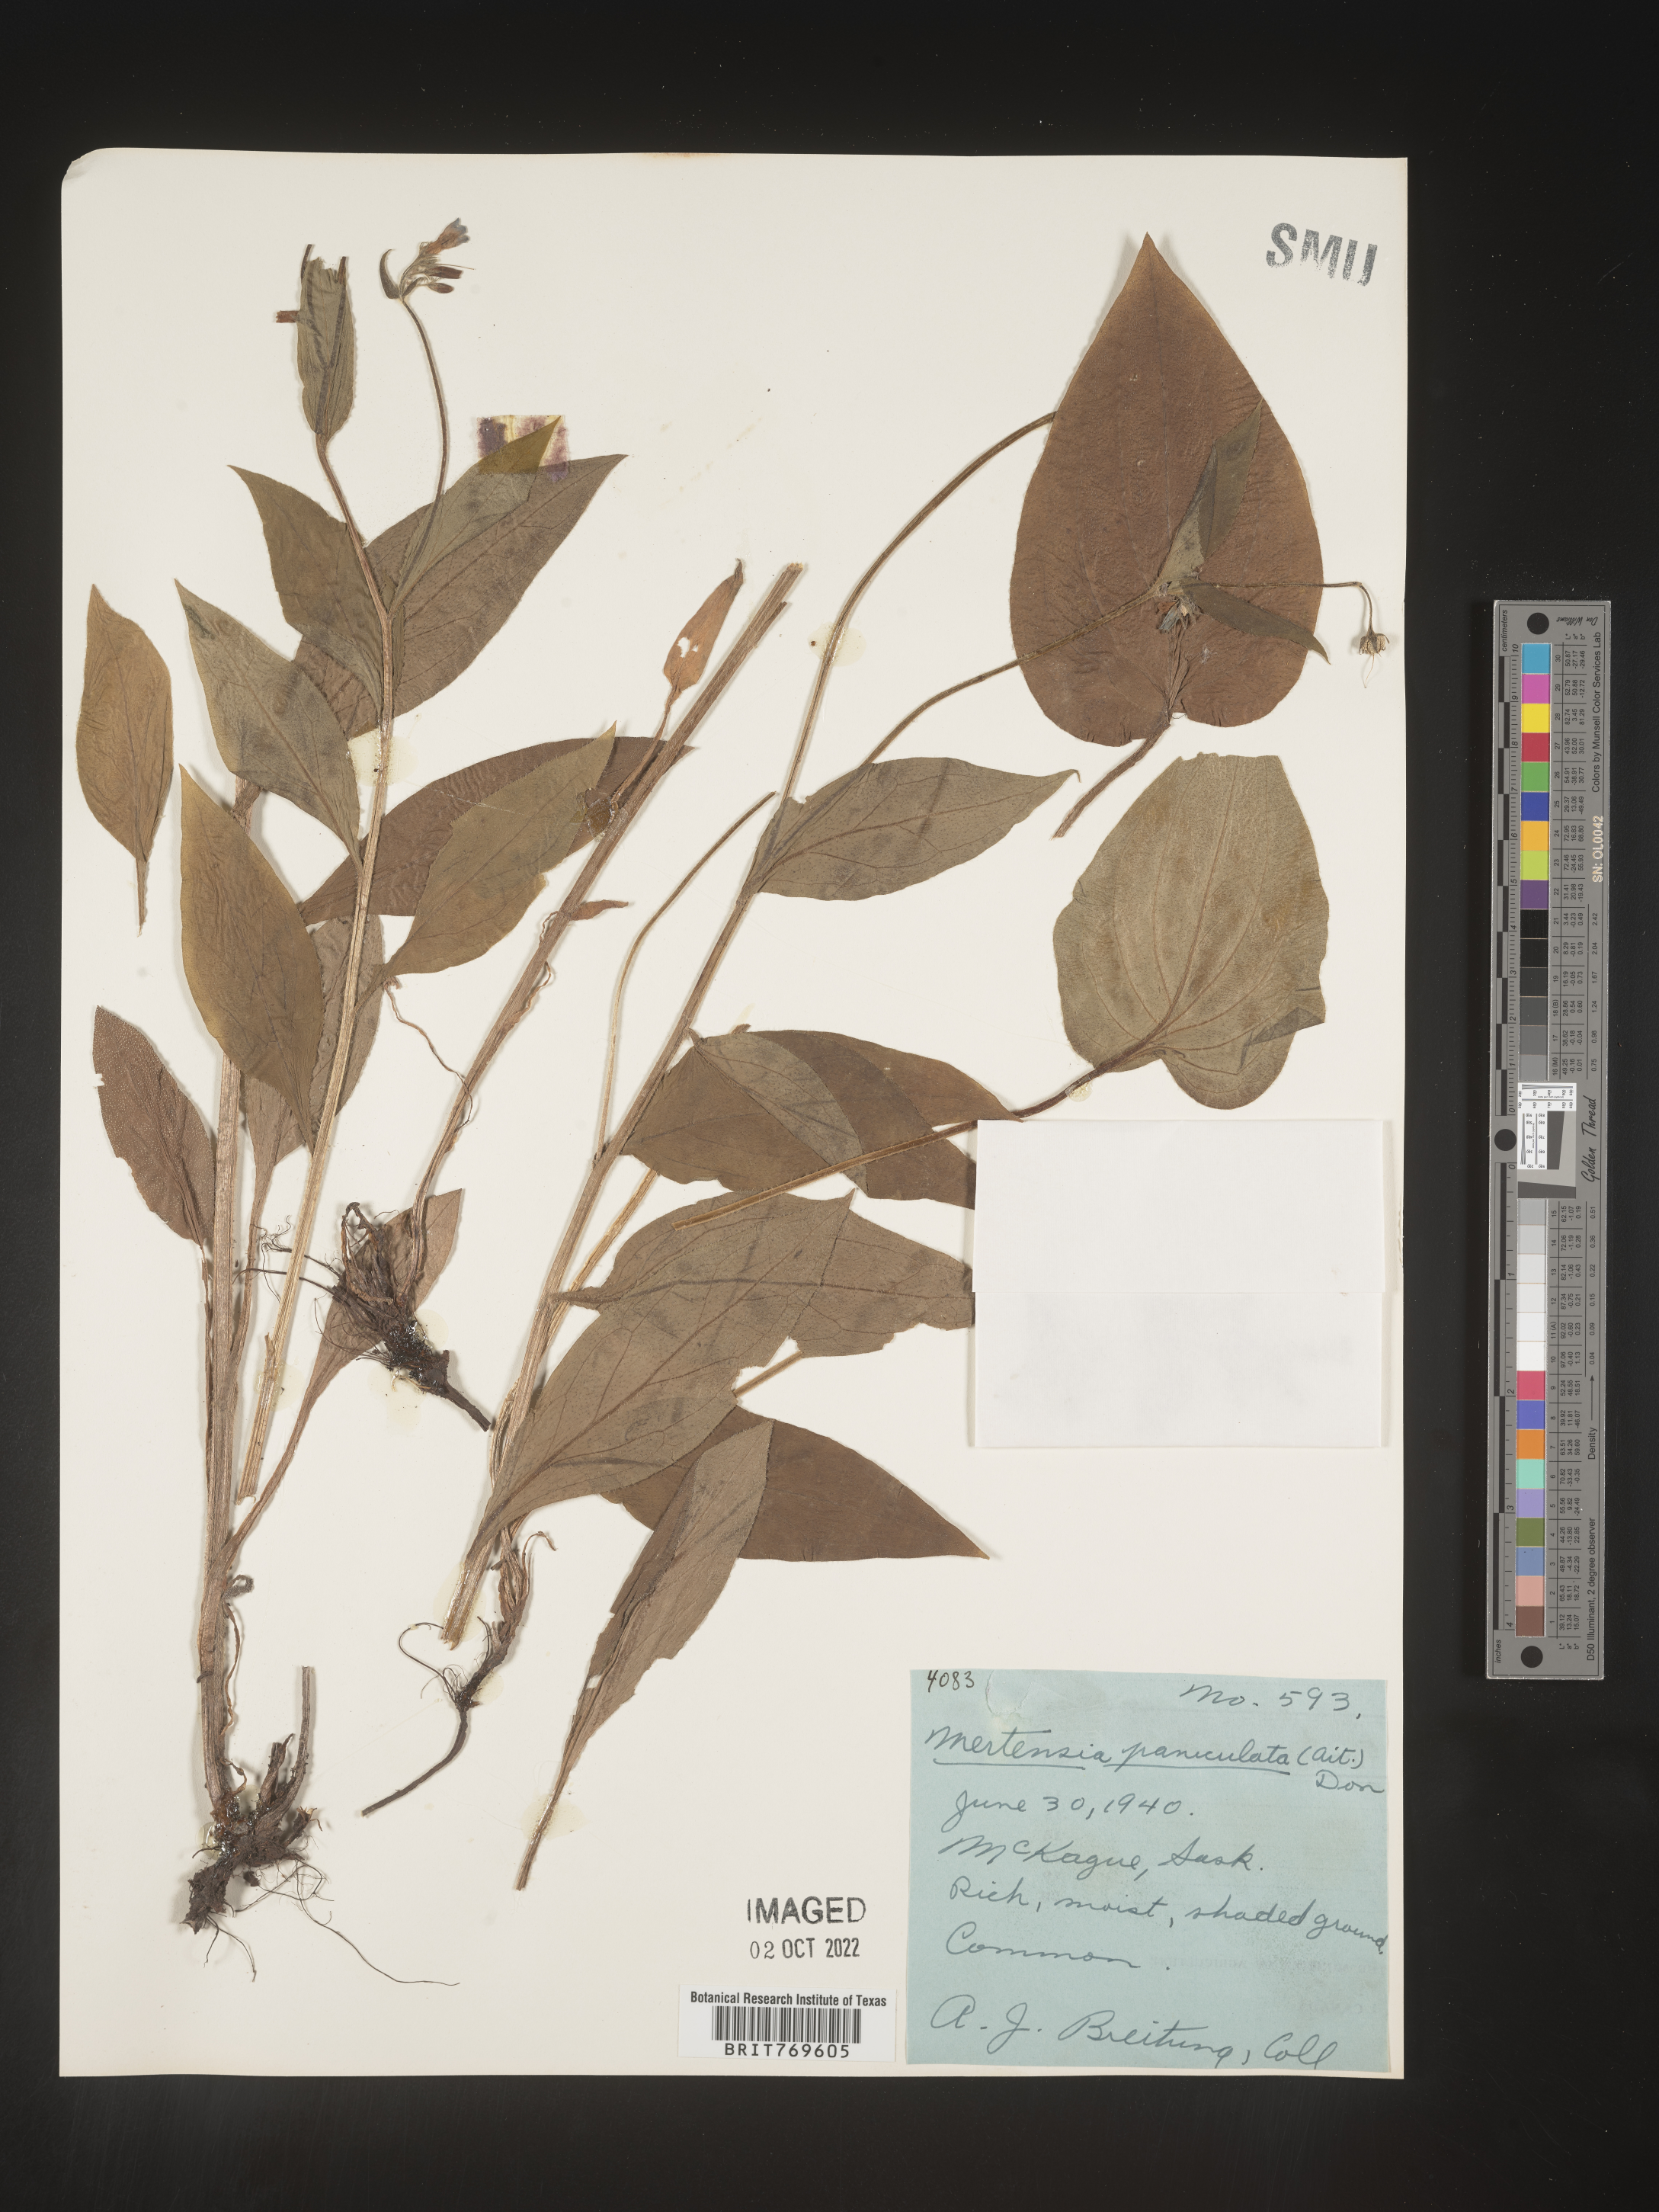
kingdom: Plantae
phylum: Tracheophyta
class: Magnoliopsida
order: Boraginales
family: Boraginaceae
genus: Mertensia
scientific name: Mertensia
